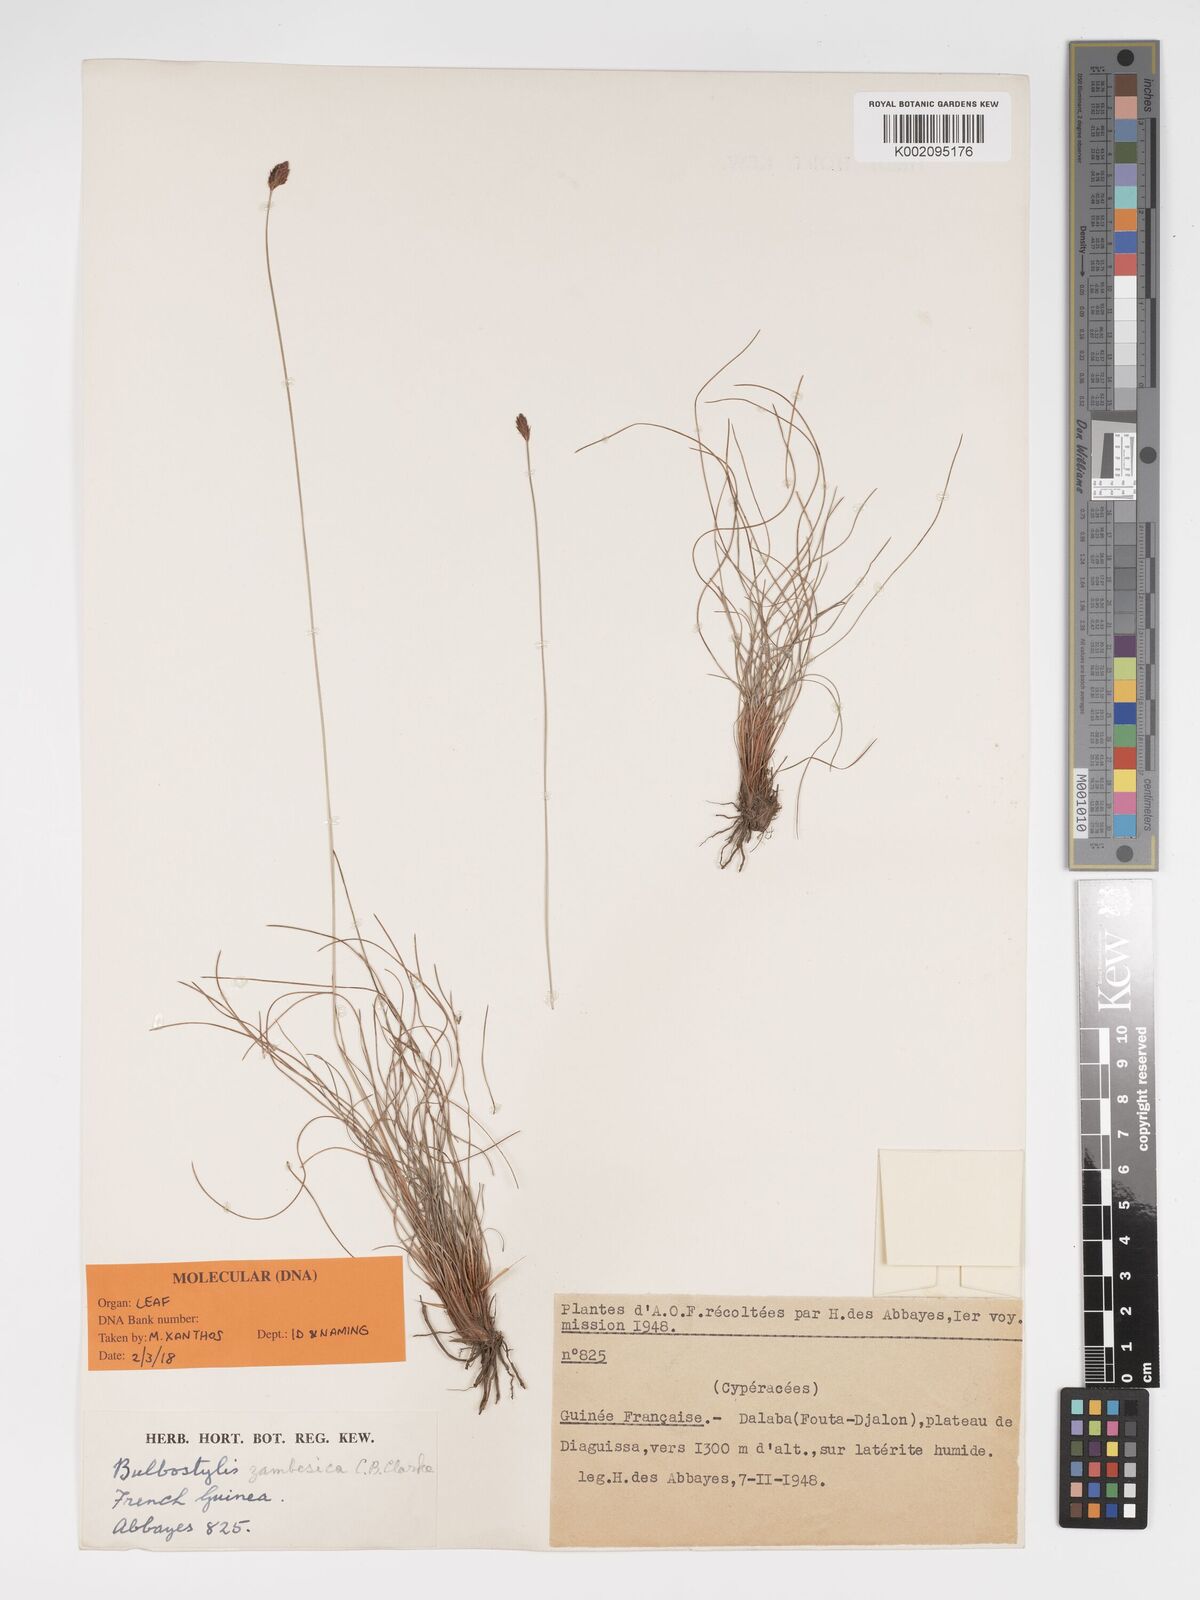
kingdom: Plantae
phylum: Tracheophyta
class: Liliopsida
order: Poales
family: Cyperaceae
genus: Bulbostylis
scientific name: Bulbostylis bodardii
